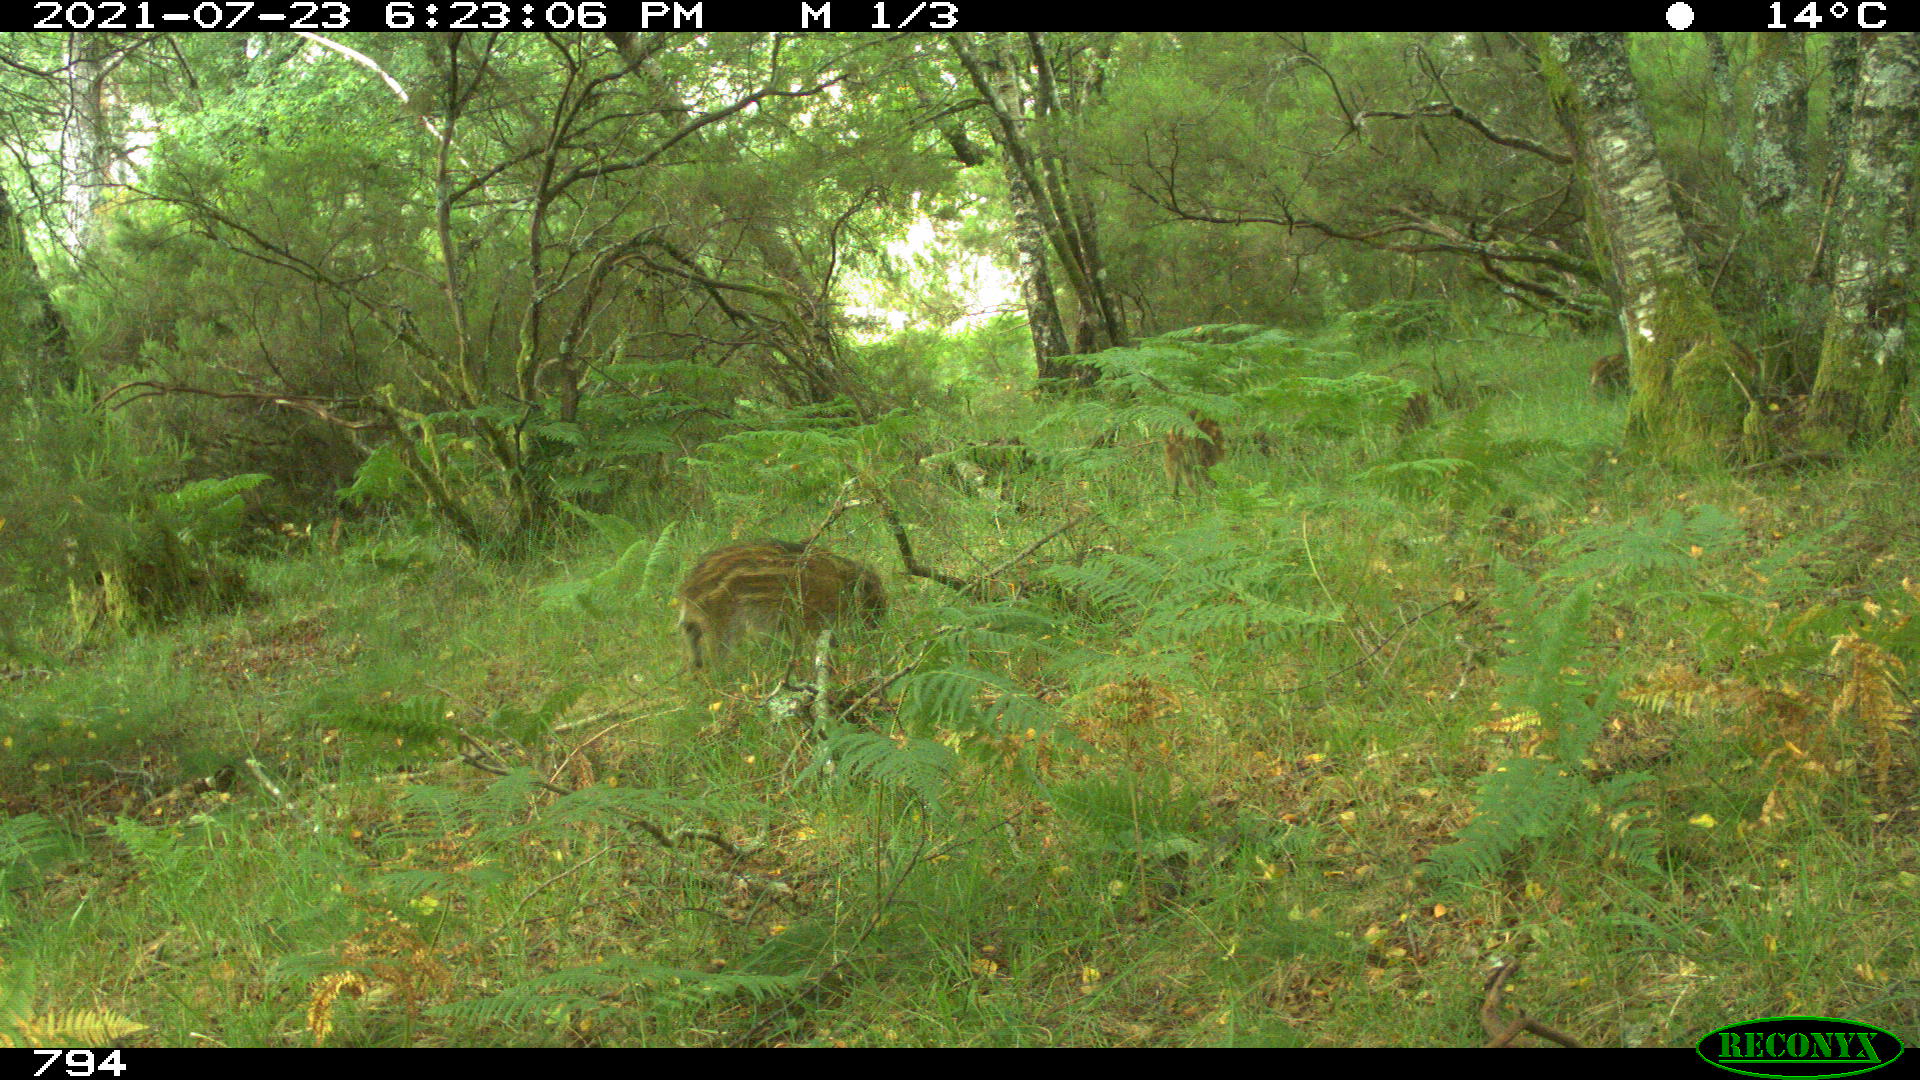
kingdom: Animalia
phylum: Chordata
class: Mammalia
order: Artiodactyla
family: Suidae
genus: Sus
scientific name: Sus scrofa
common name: Wild boar
